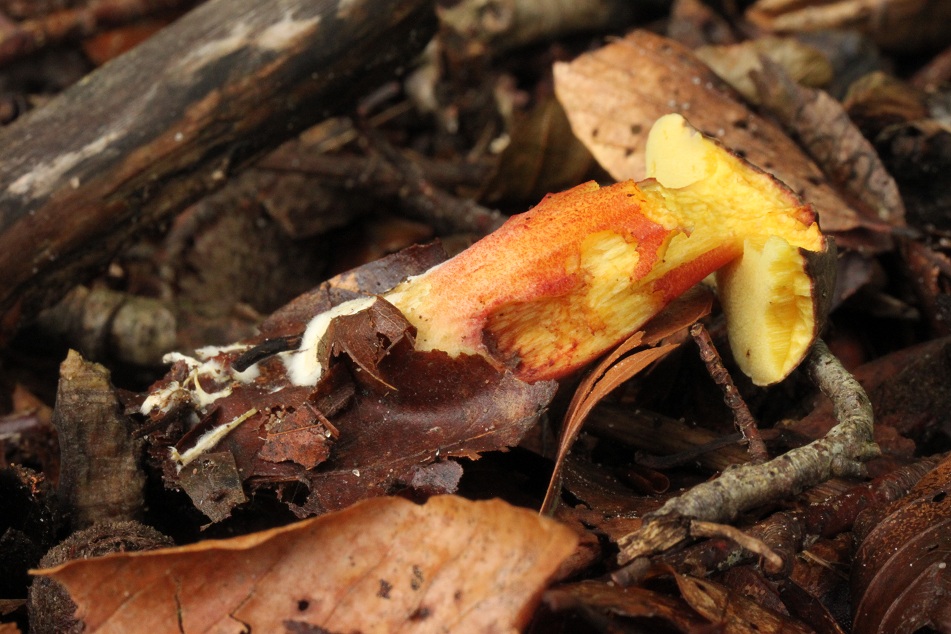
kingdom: Fungi
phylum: Basidiomycota
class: Agaricomycetes
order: Boletales
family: Boletaceae
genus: Xerocomellus
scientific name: Xerocomellus chrysenteron
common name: rødsprukken rørhat
